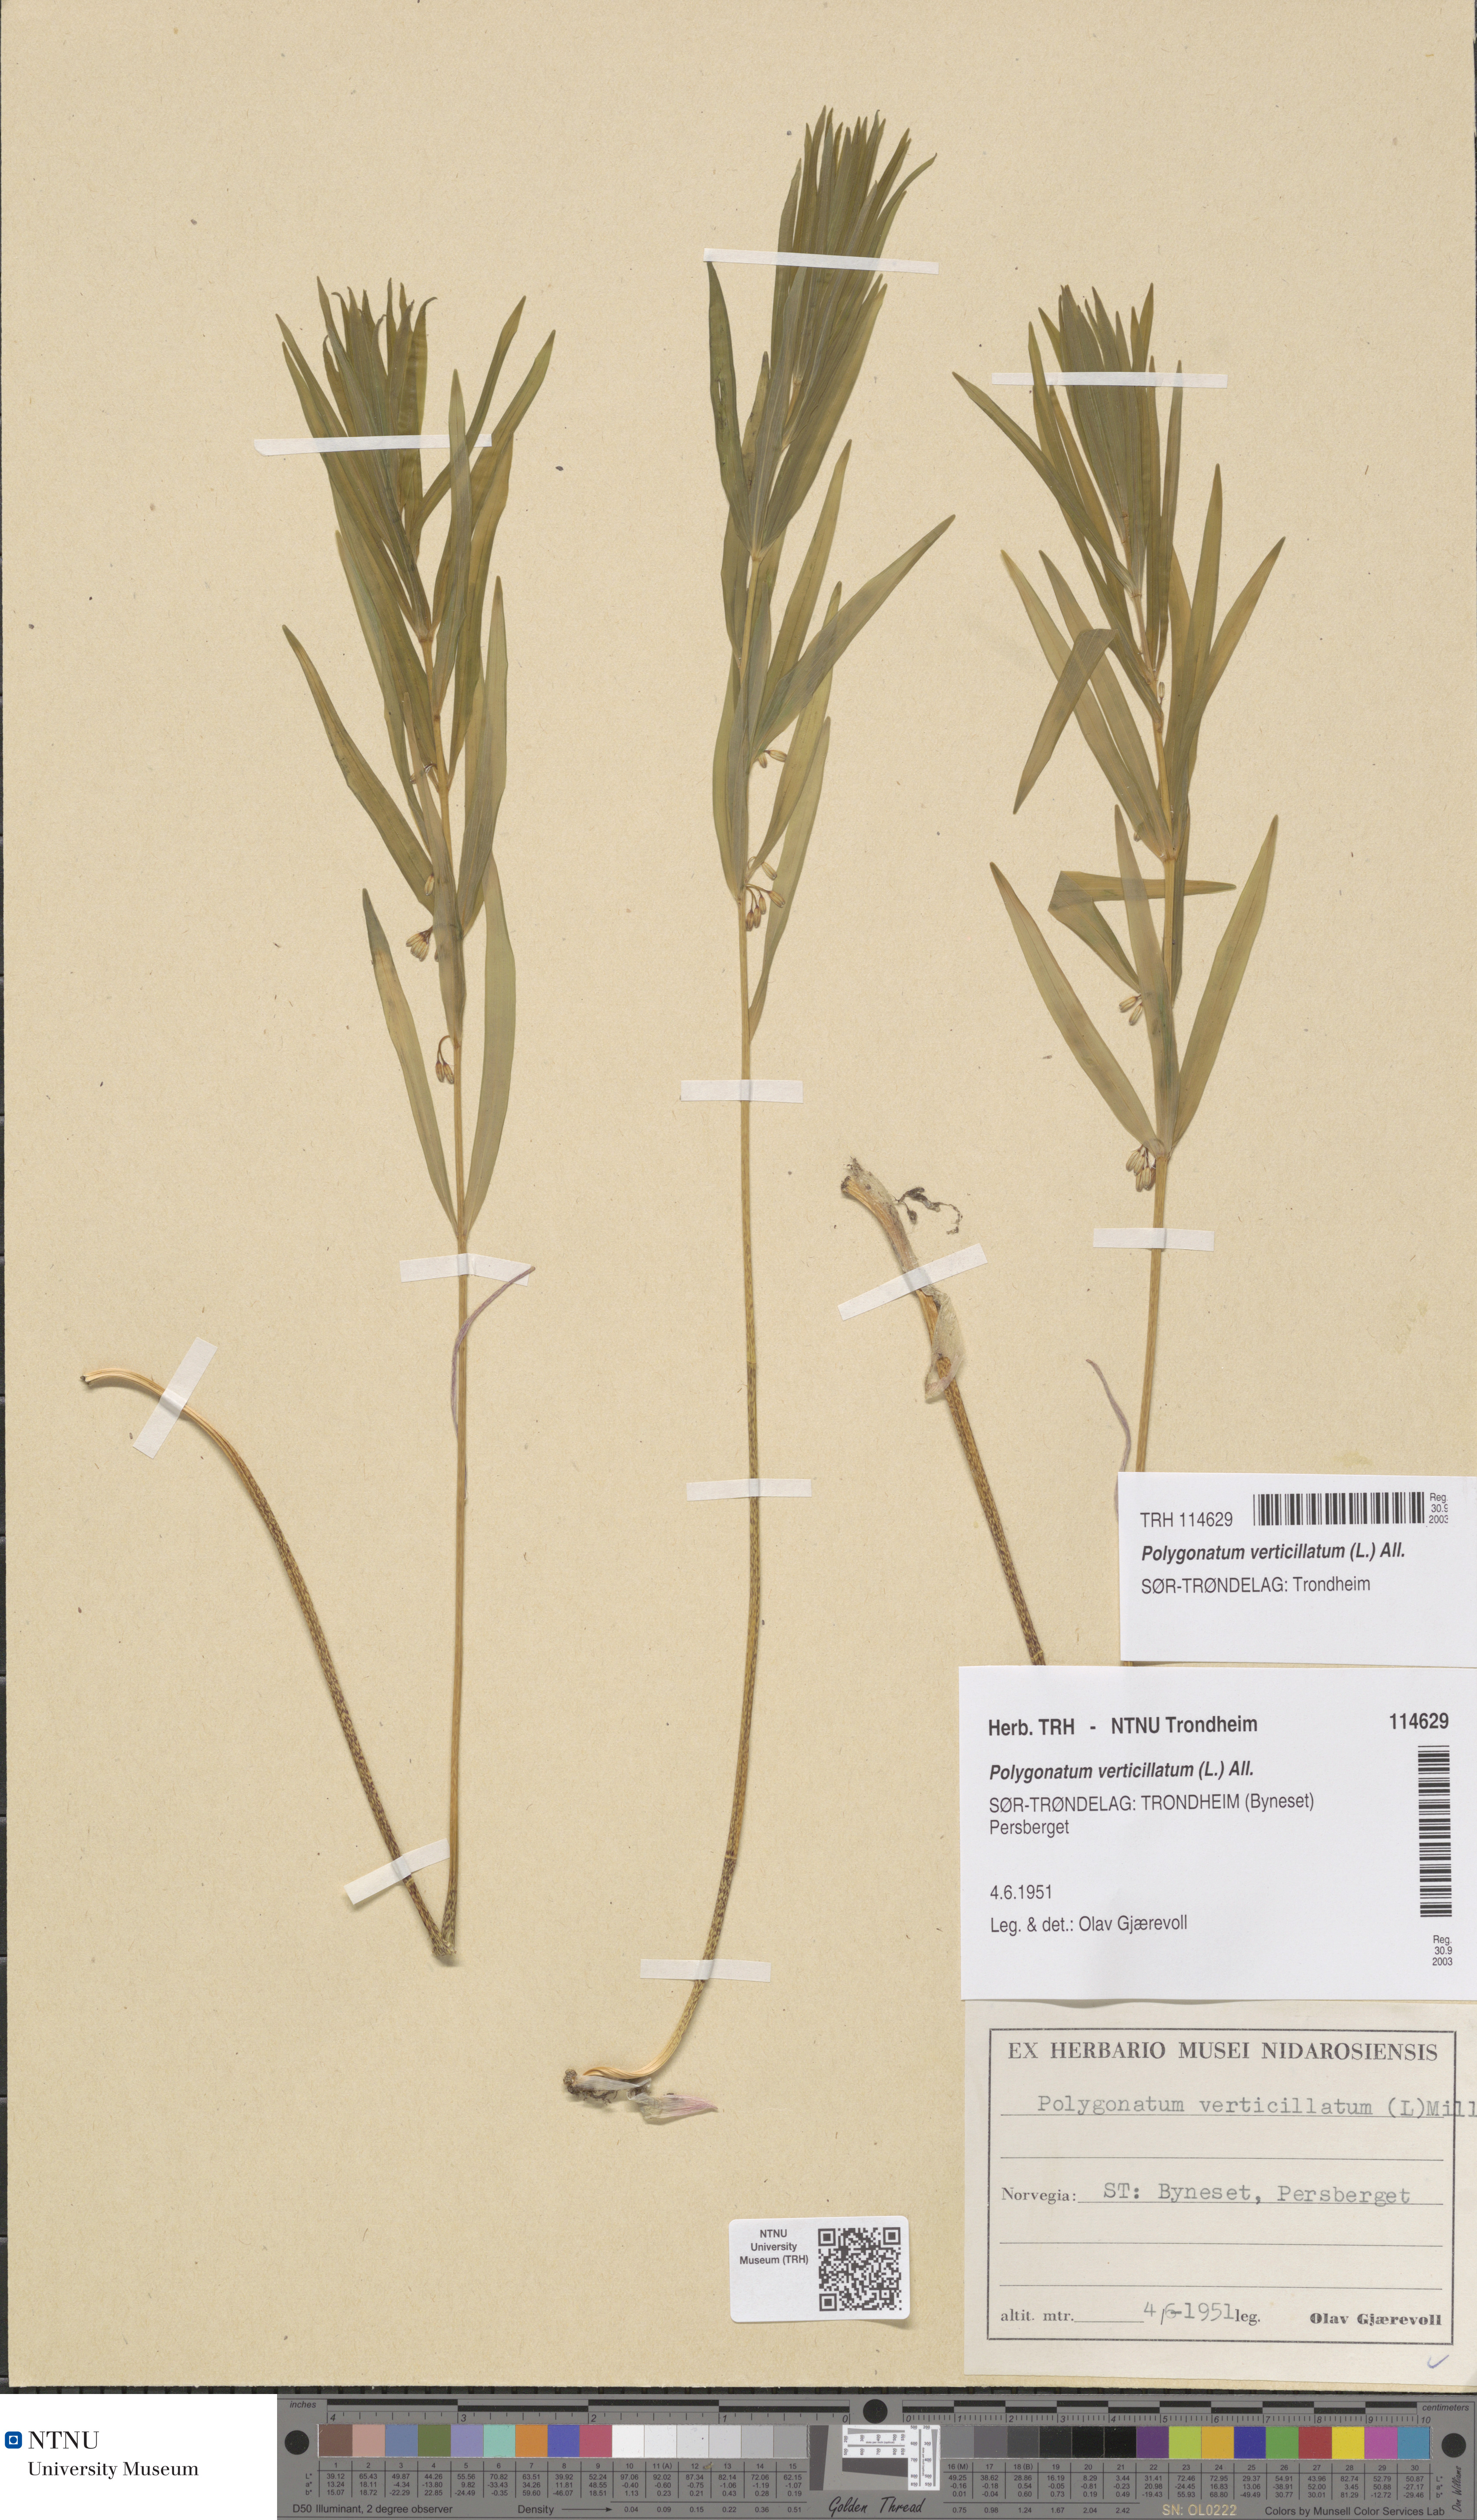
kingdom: Plantae
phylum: Tracheophyta
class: Liliopsida
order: Asparagales
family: Asparagaceae
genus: Polygonatum
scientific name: Polygonatum verticillatum
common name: Whorled solomon's-seal
